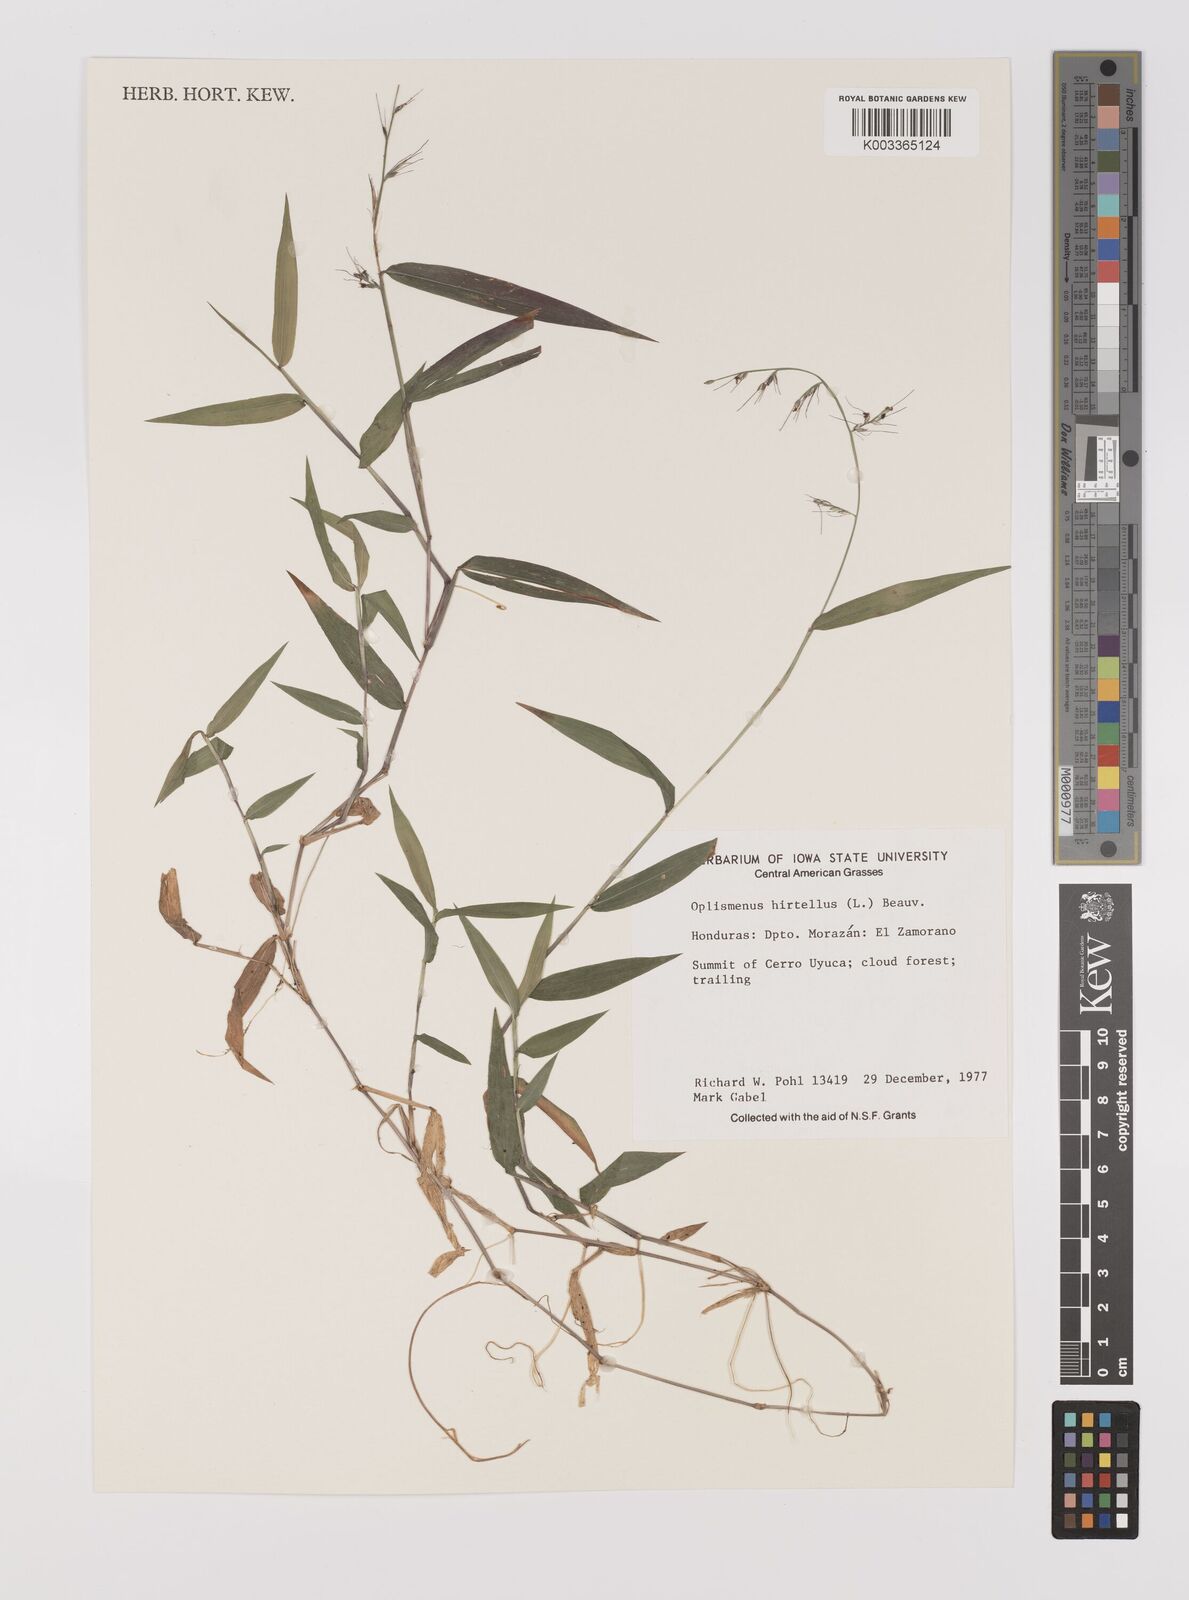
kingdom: Plantae
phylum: Tracheophyta
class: Liliopsida
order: Poales
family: Poaceae
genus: Oplismenus
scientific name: Oplismenus hirtellus
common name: Basketgrass
